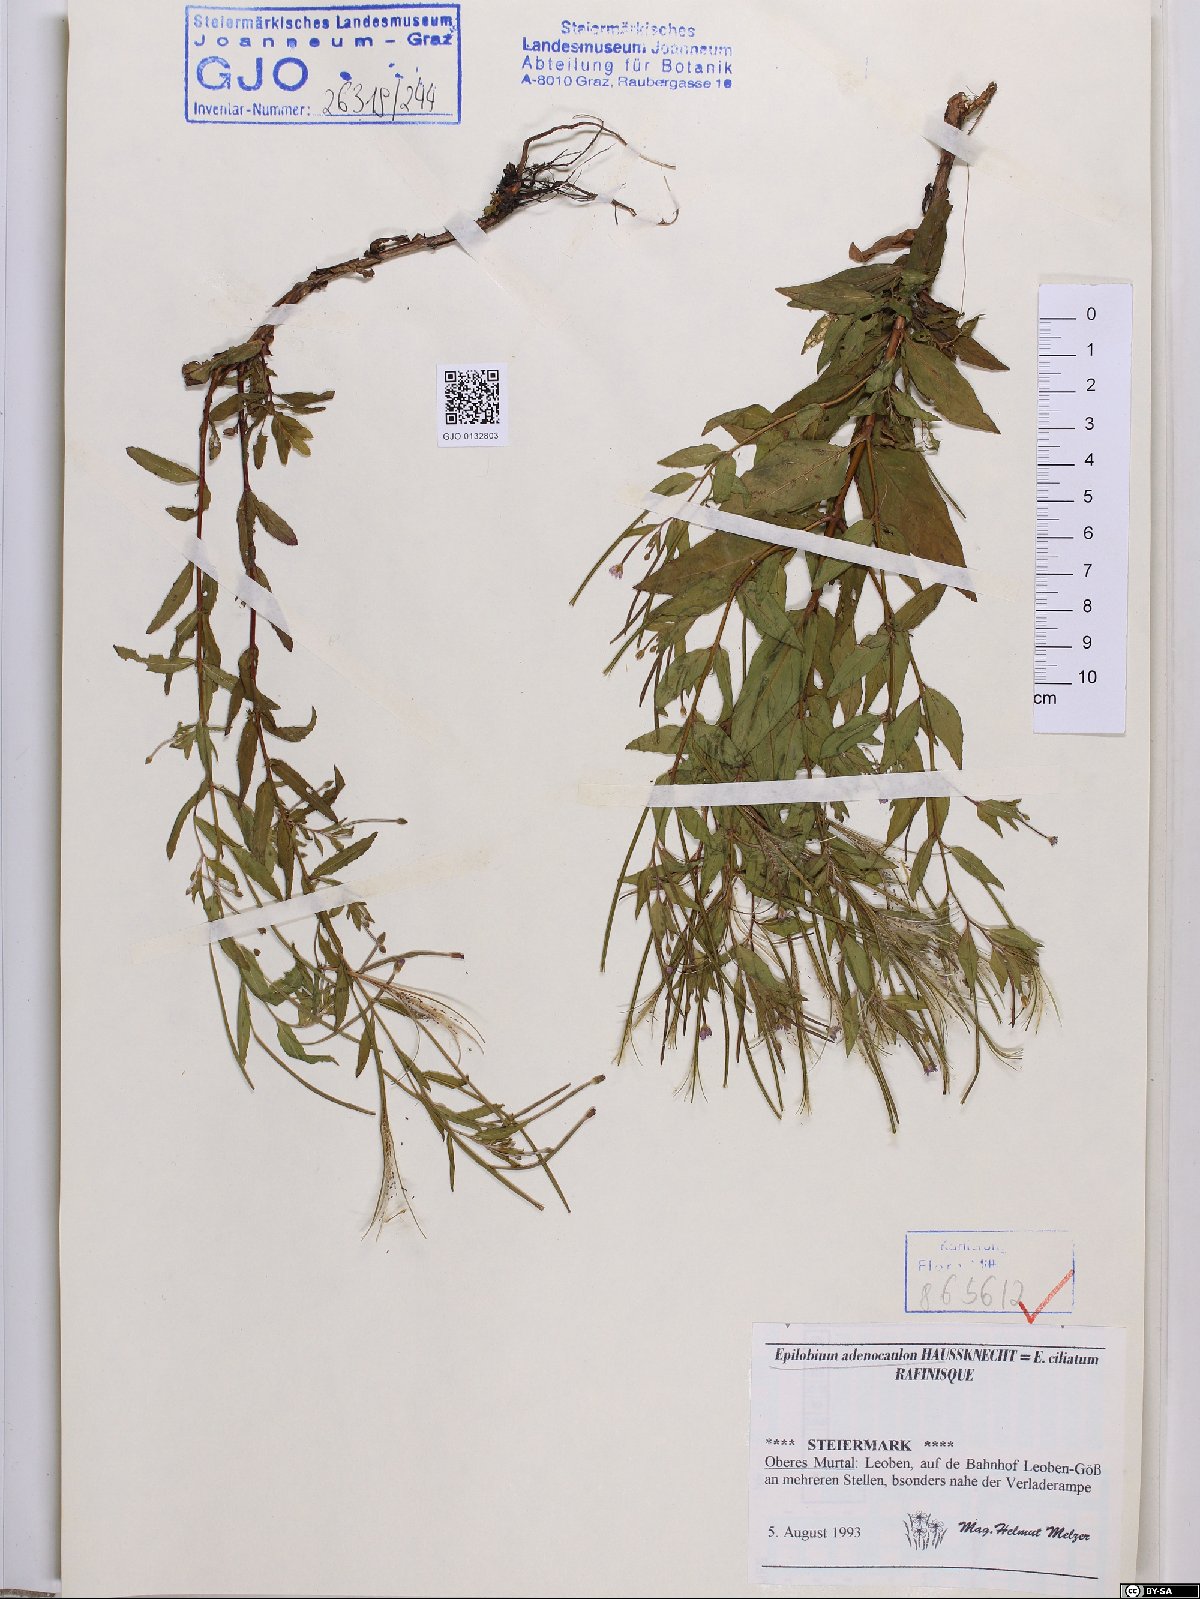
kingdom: Plantae
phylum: Tracheophyta
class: Magnoliopsida
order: Myrtales
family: Onagraceae
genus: Epilobium
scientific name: Epilobium ciliatum
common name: American willowherb
